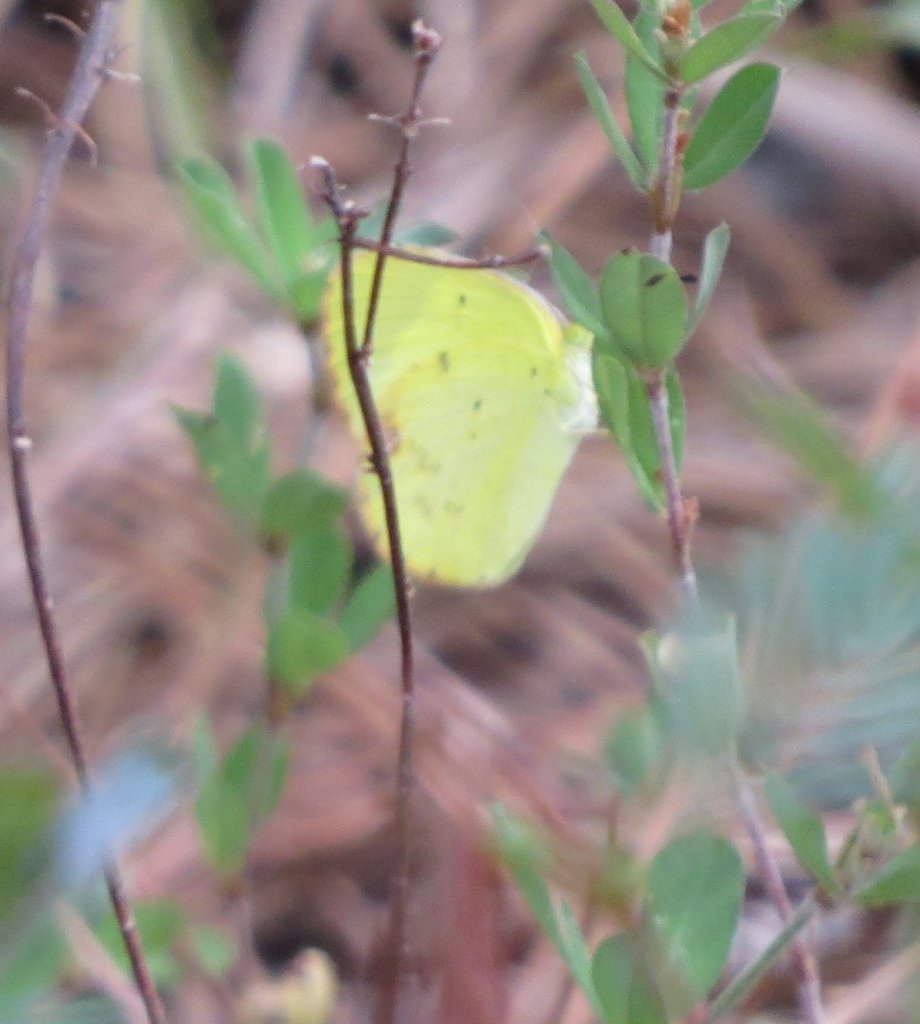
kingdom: Animalia
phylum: Arthropoda
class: Insecta
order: Lepidoptera
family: Pieridae
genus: Pyrisitia
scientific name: Pyrisitia lisa
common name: Little Yellow
